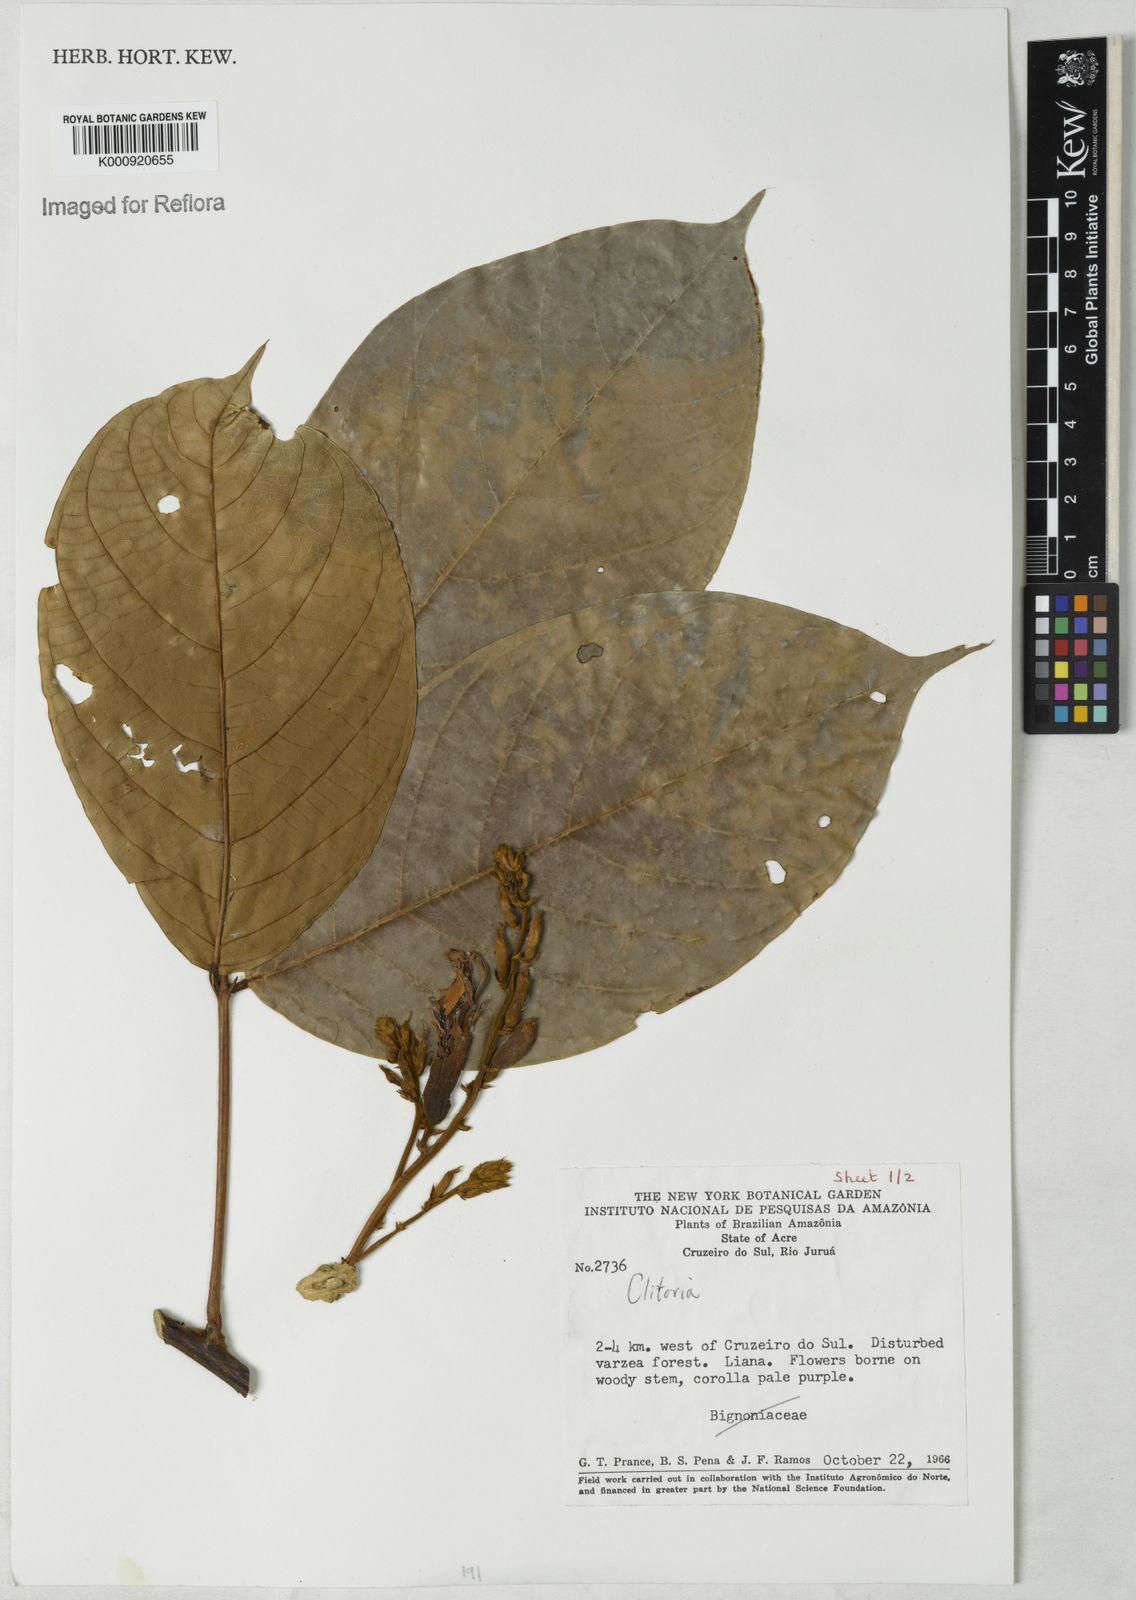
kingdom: Plantae
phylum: Tracheophyta
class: Magnoliopsida
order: Fabales
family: Fabaceae
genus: Clitoria
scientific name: Clitoria
